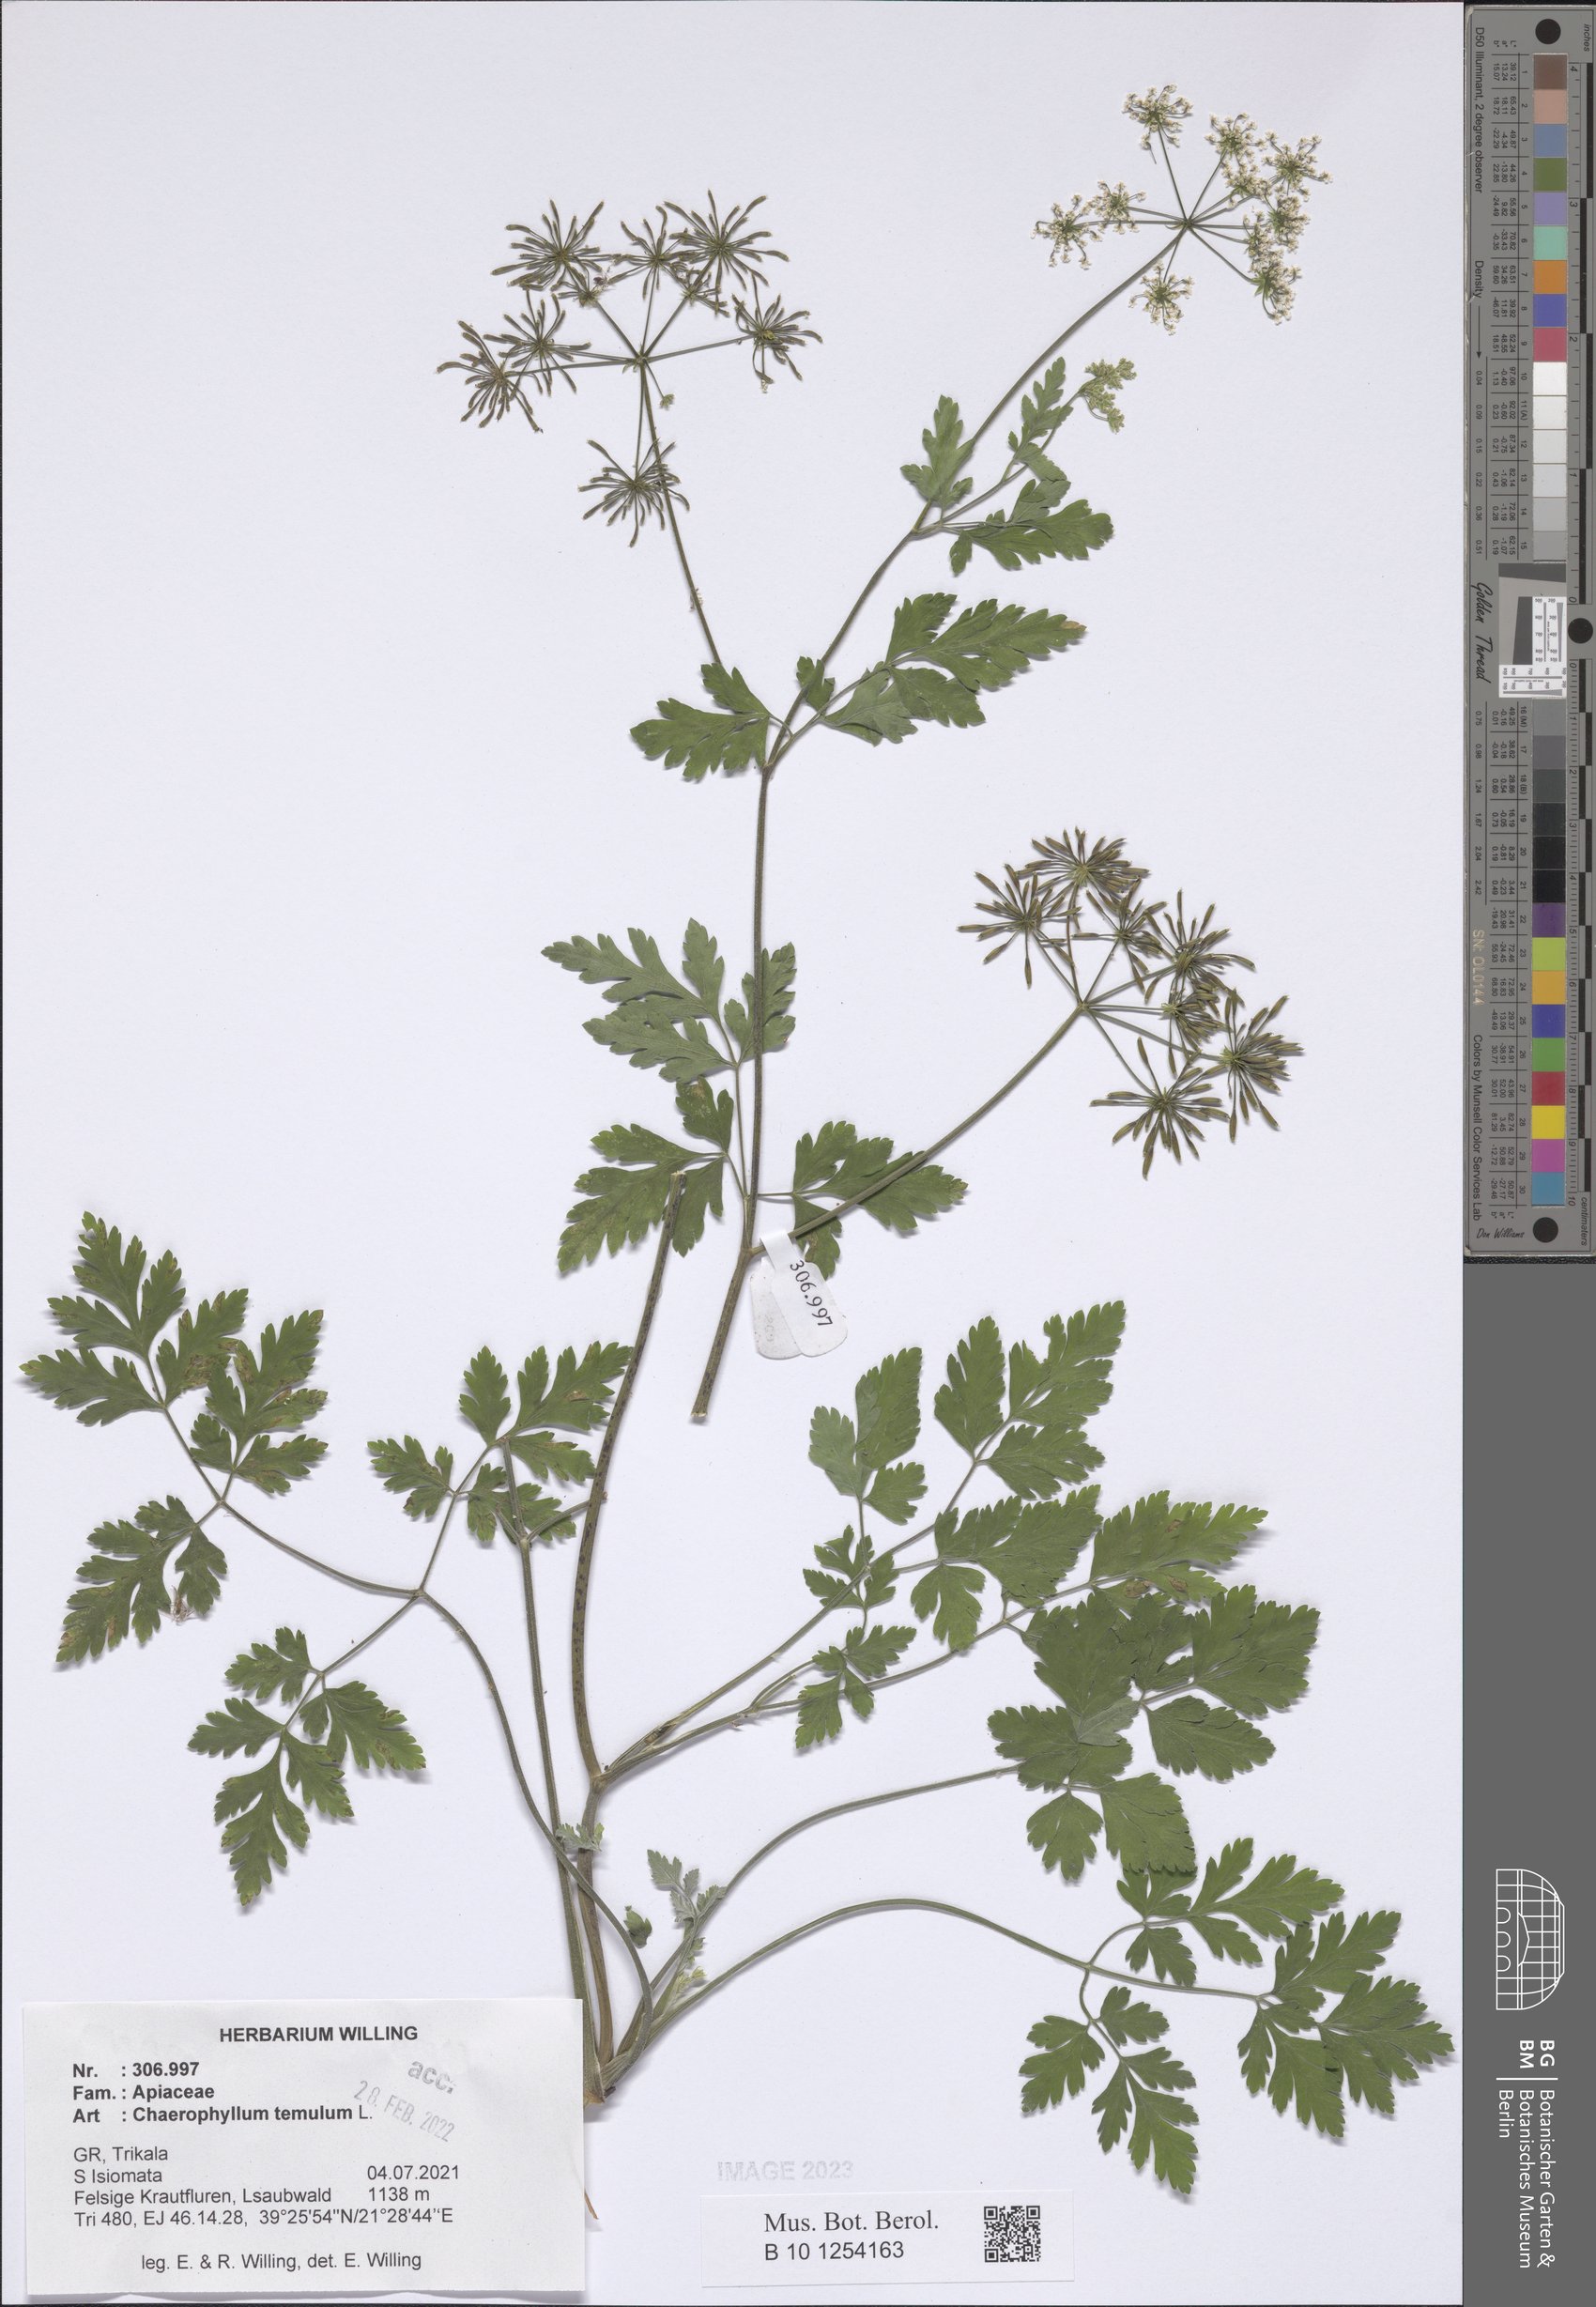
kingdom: Plantae
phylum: Tracheophyta
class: Magnoliopsida
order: Apiales
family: Apiaceae
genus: Chaerophyllum
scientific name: Chaerophyllum temulum
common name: Rough chervil
